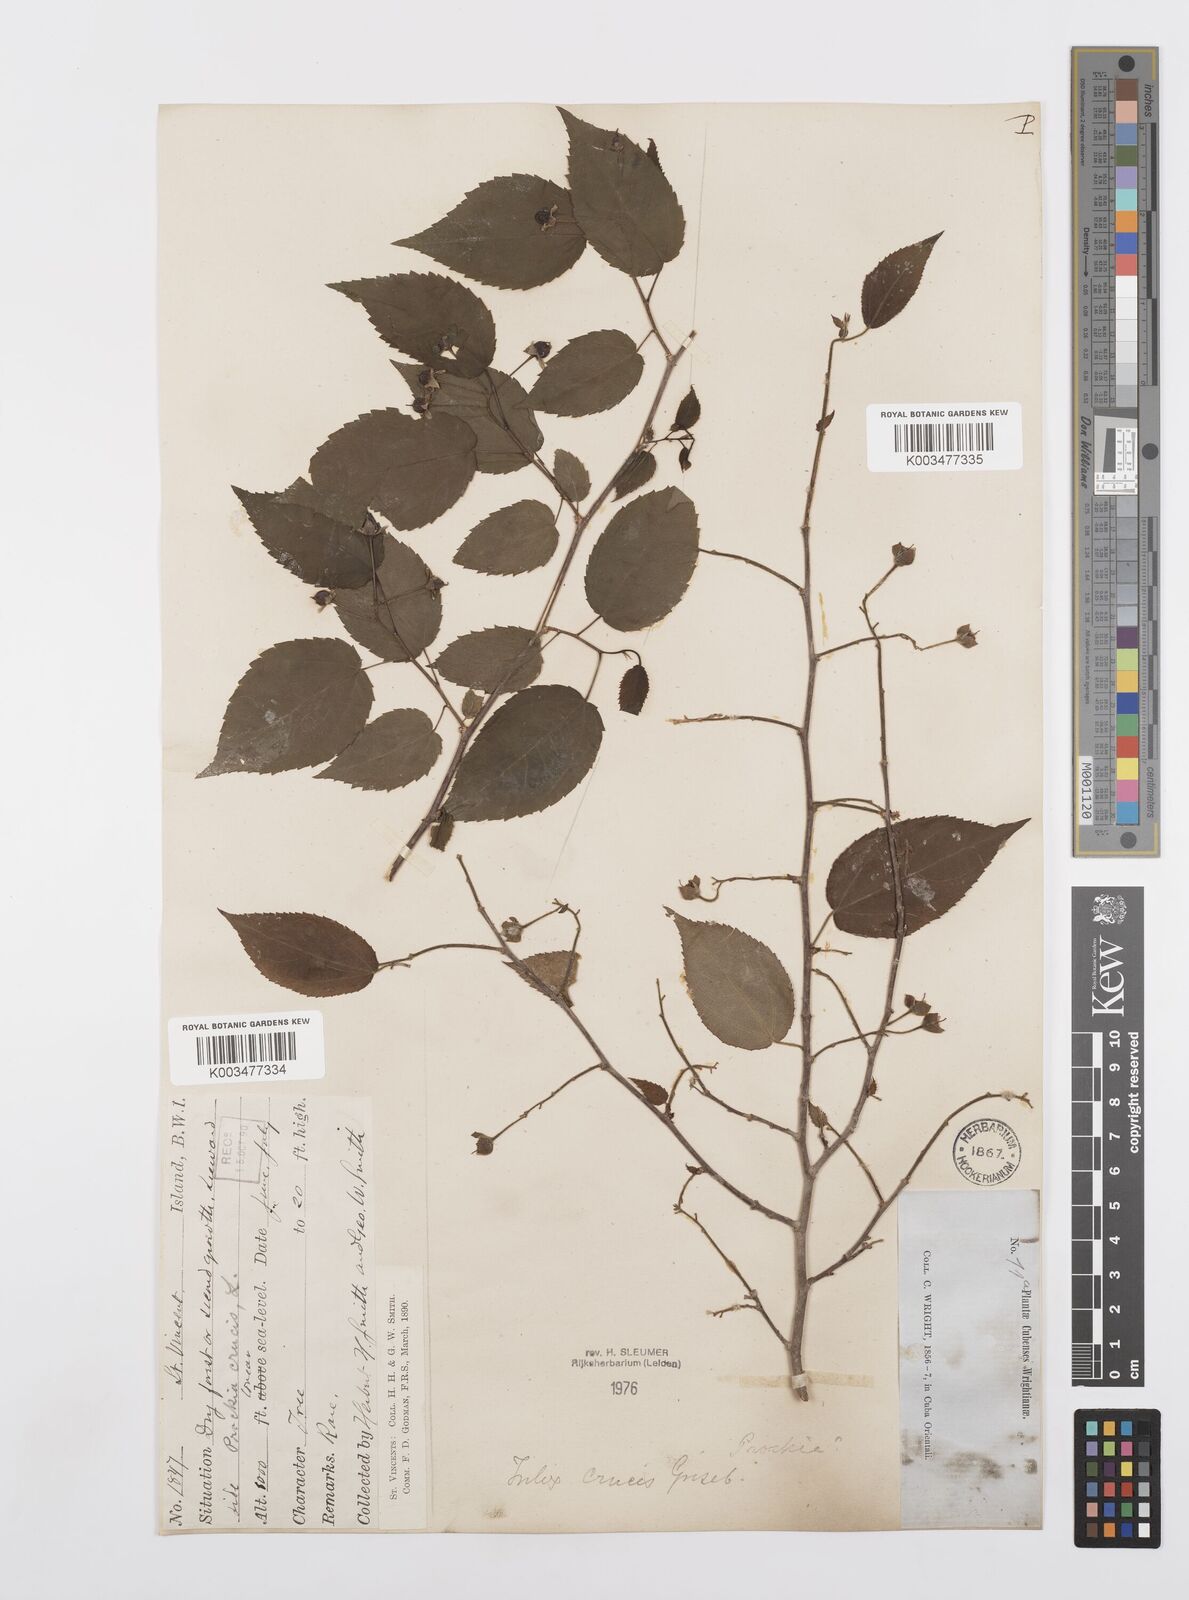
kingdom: Plantae
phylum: Tracheophyta
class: Magnoliopsida
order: Malpighiales
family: Salicaceae
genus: Prockia
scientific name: Prockia crucis
